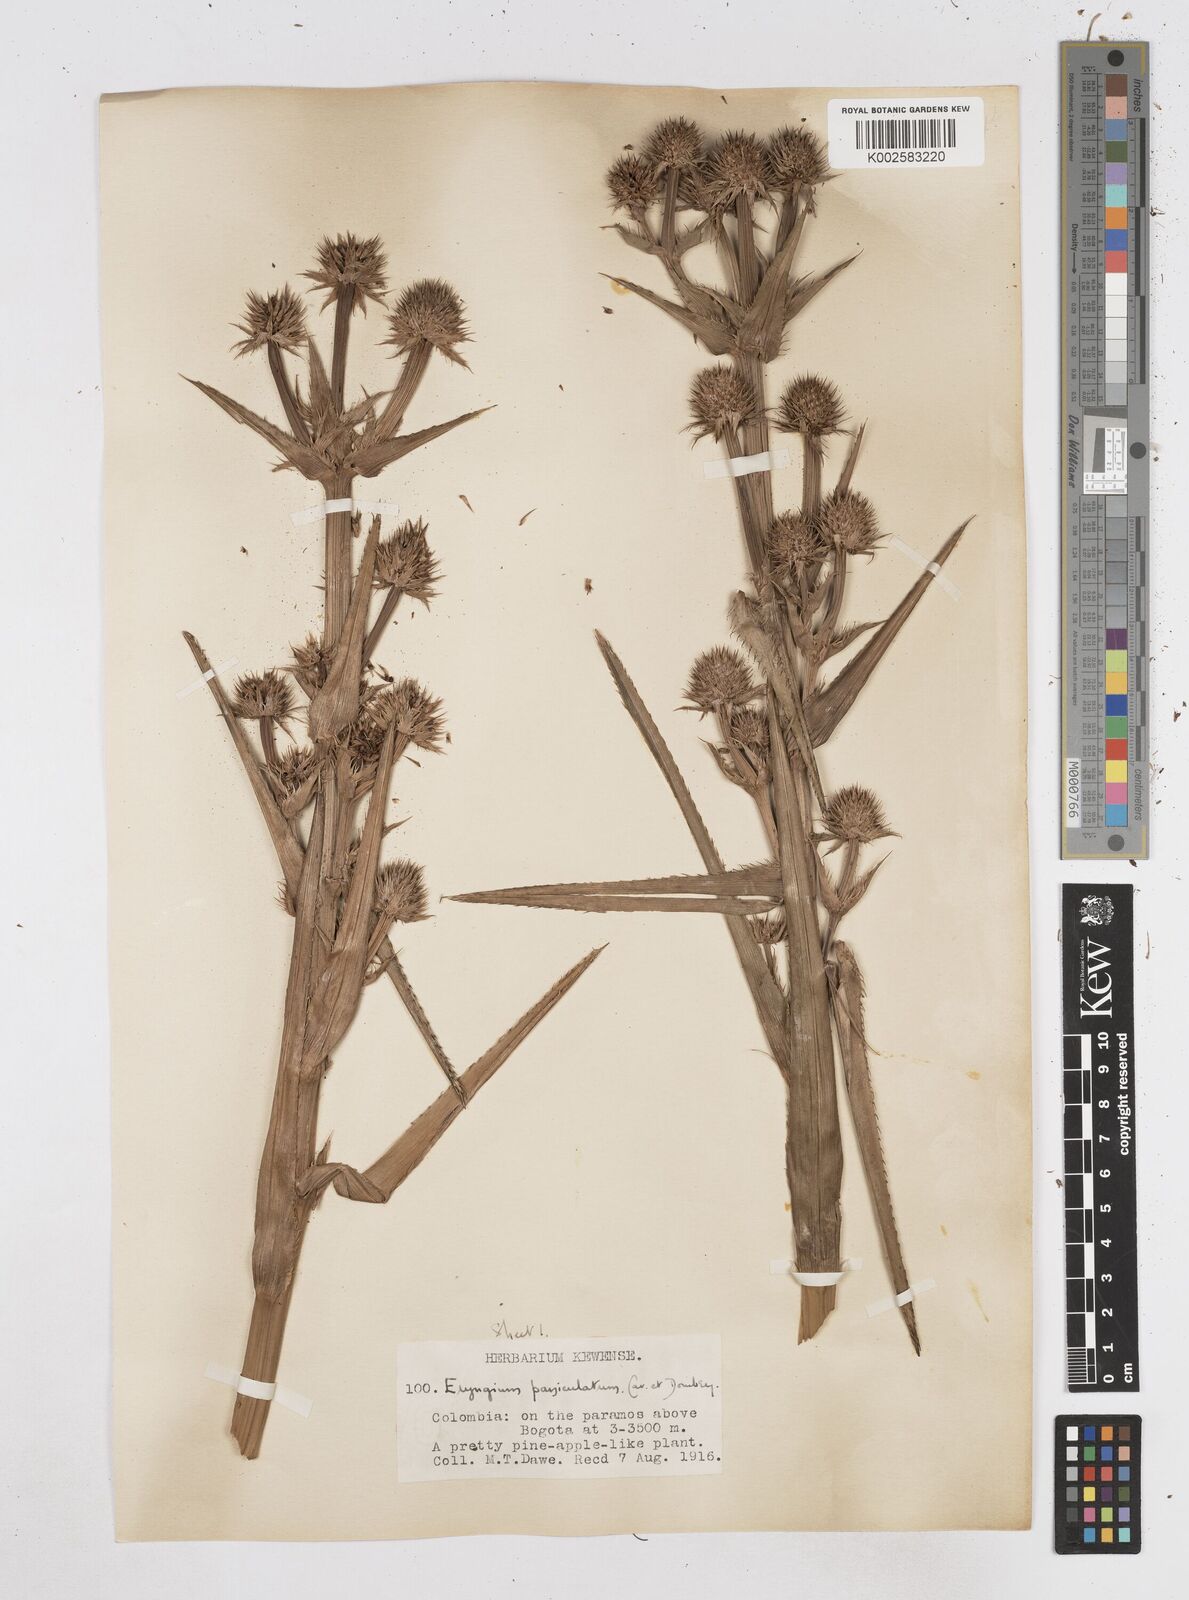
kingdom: Plantae
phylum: Tracheophyta
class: Magnoliopsida
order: Apiales
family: Apiaceae
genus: Eryngium
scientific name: Eryngium humboldtii
